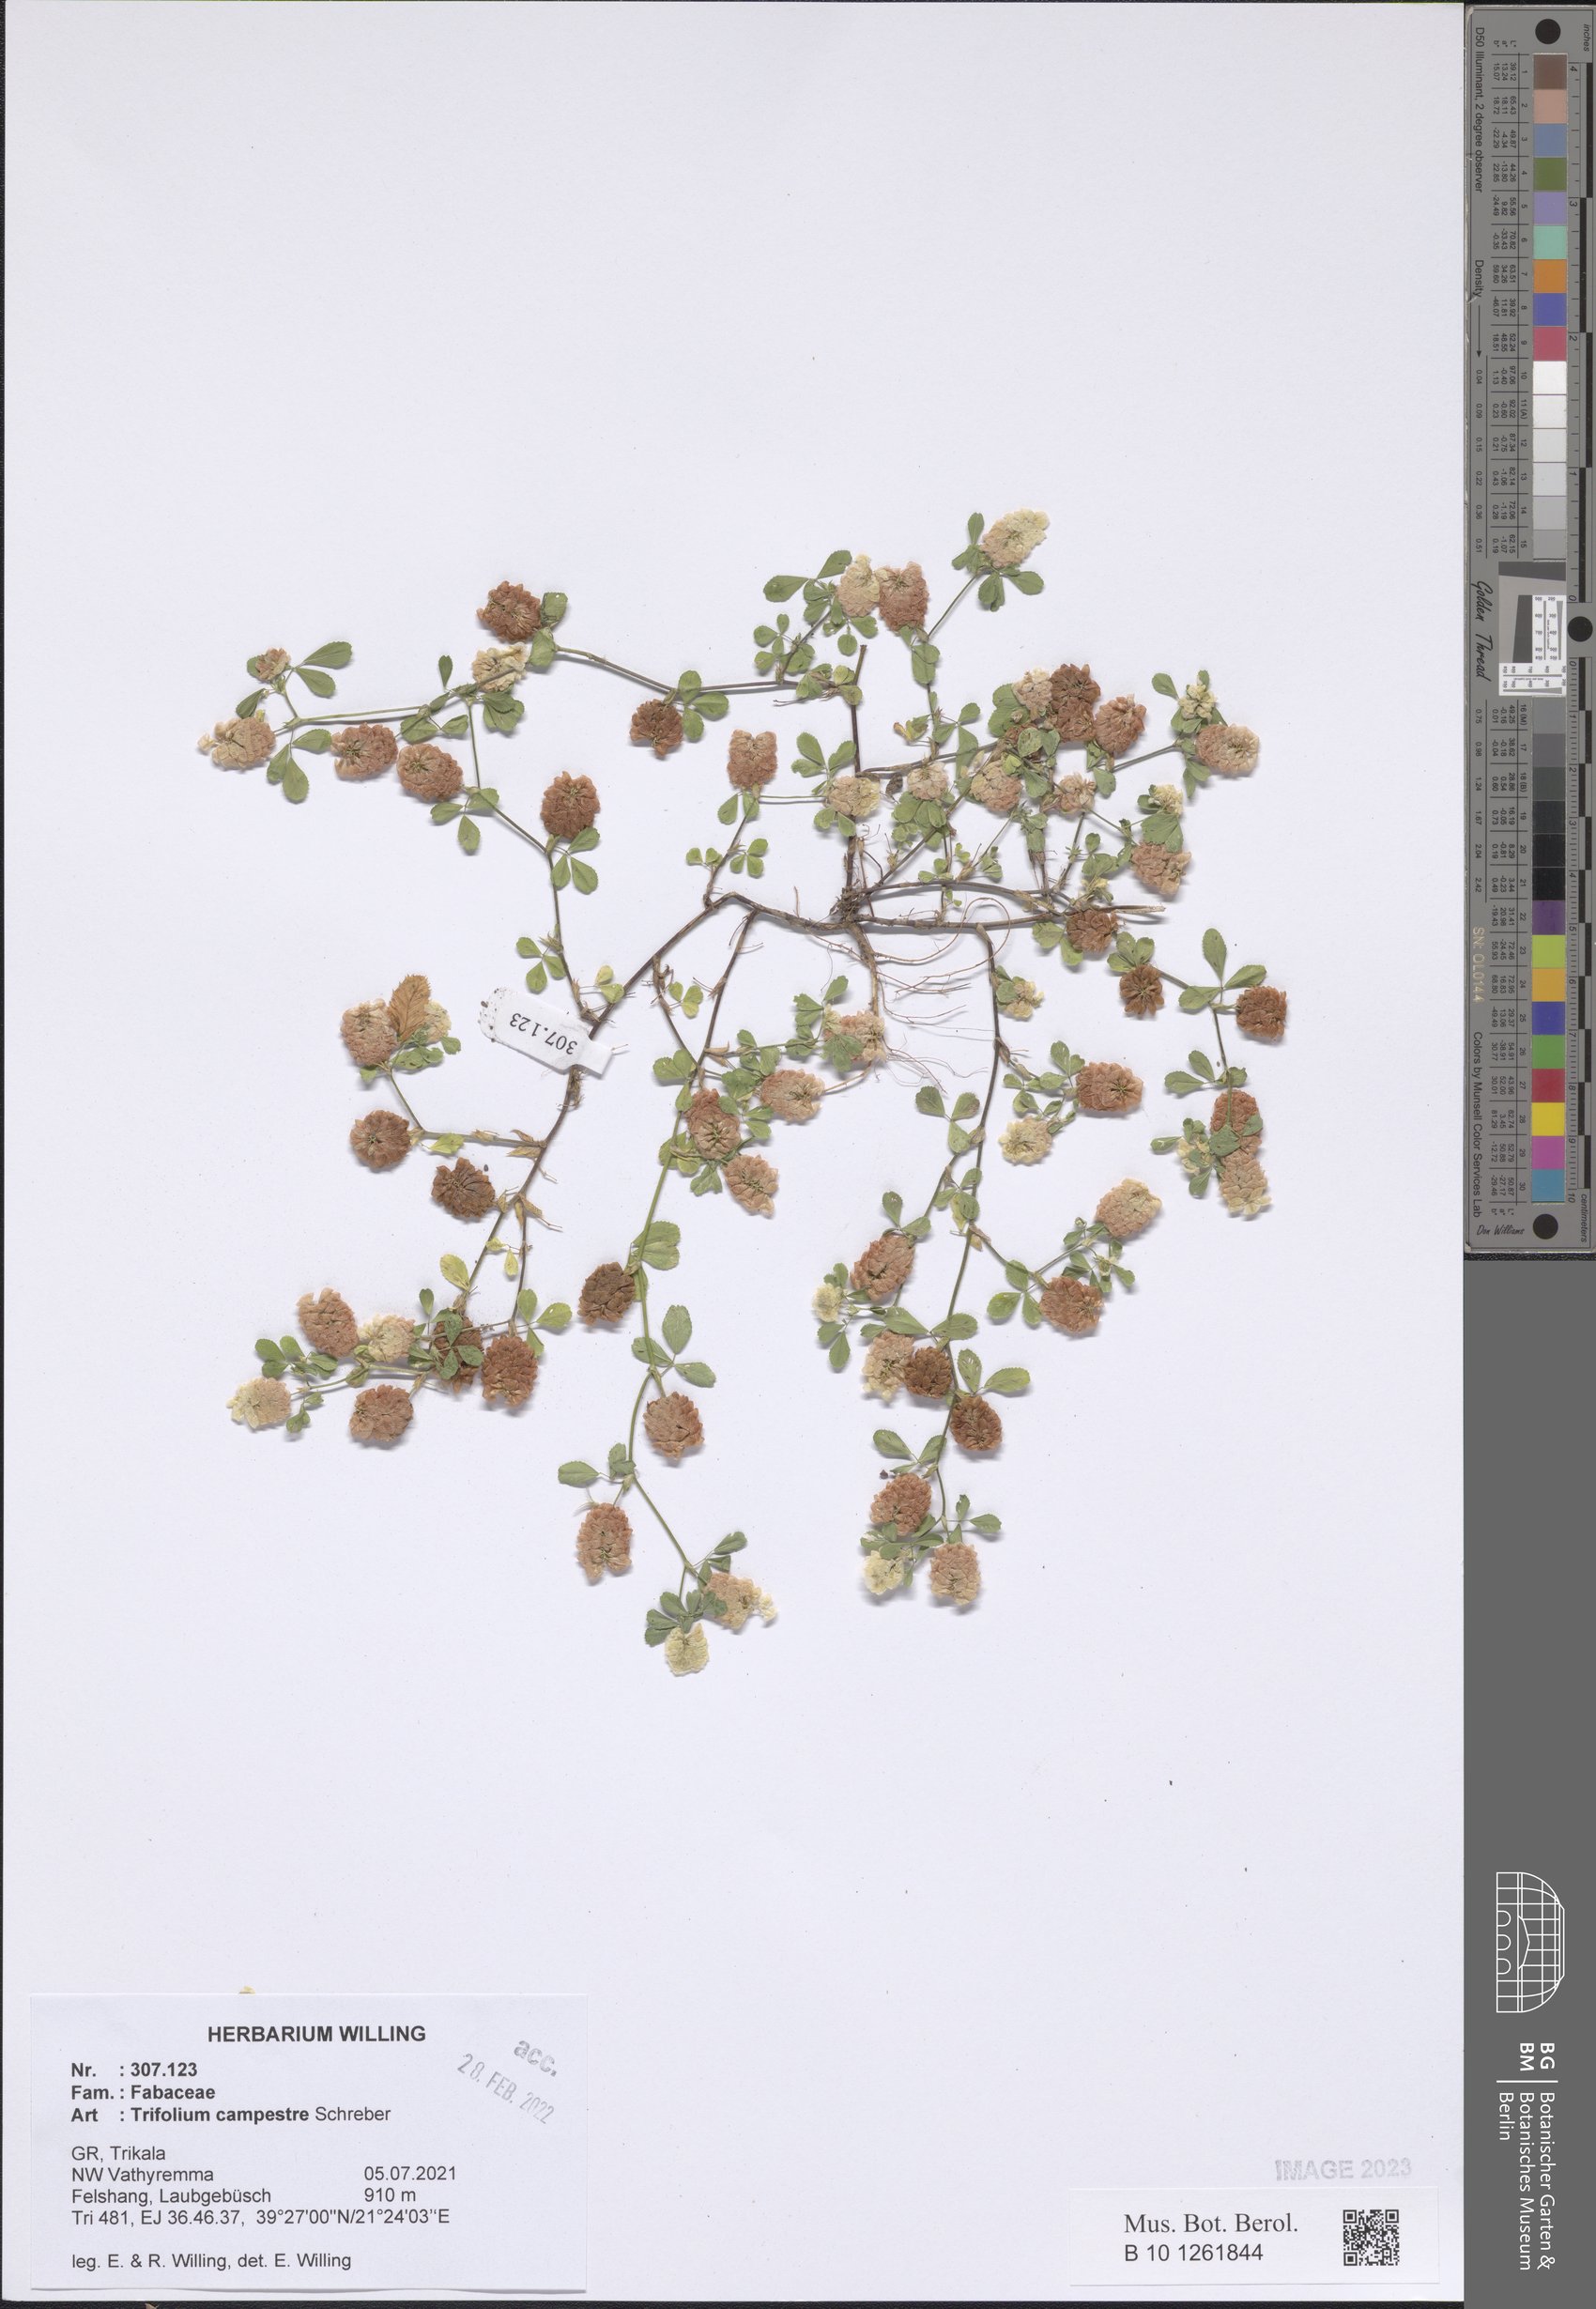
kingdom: Plantae
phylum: Tracheophyta
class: Magnoliopsida
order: Fabales
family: Fabaceae
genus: Trifolium
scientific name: Trifolium campestre
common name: Field clover
